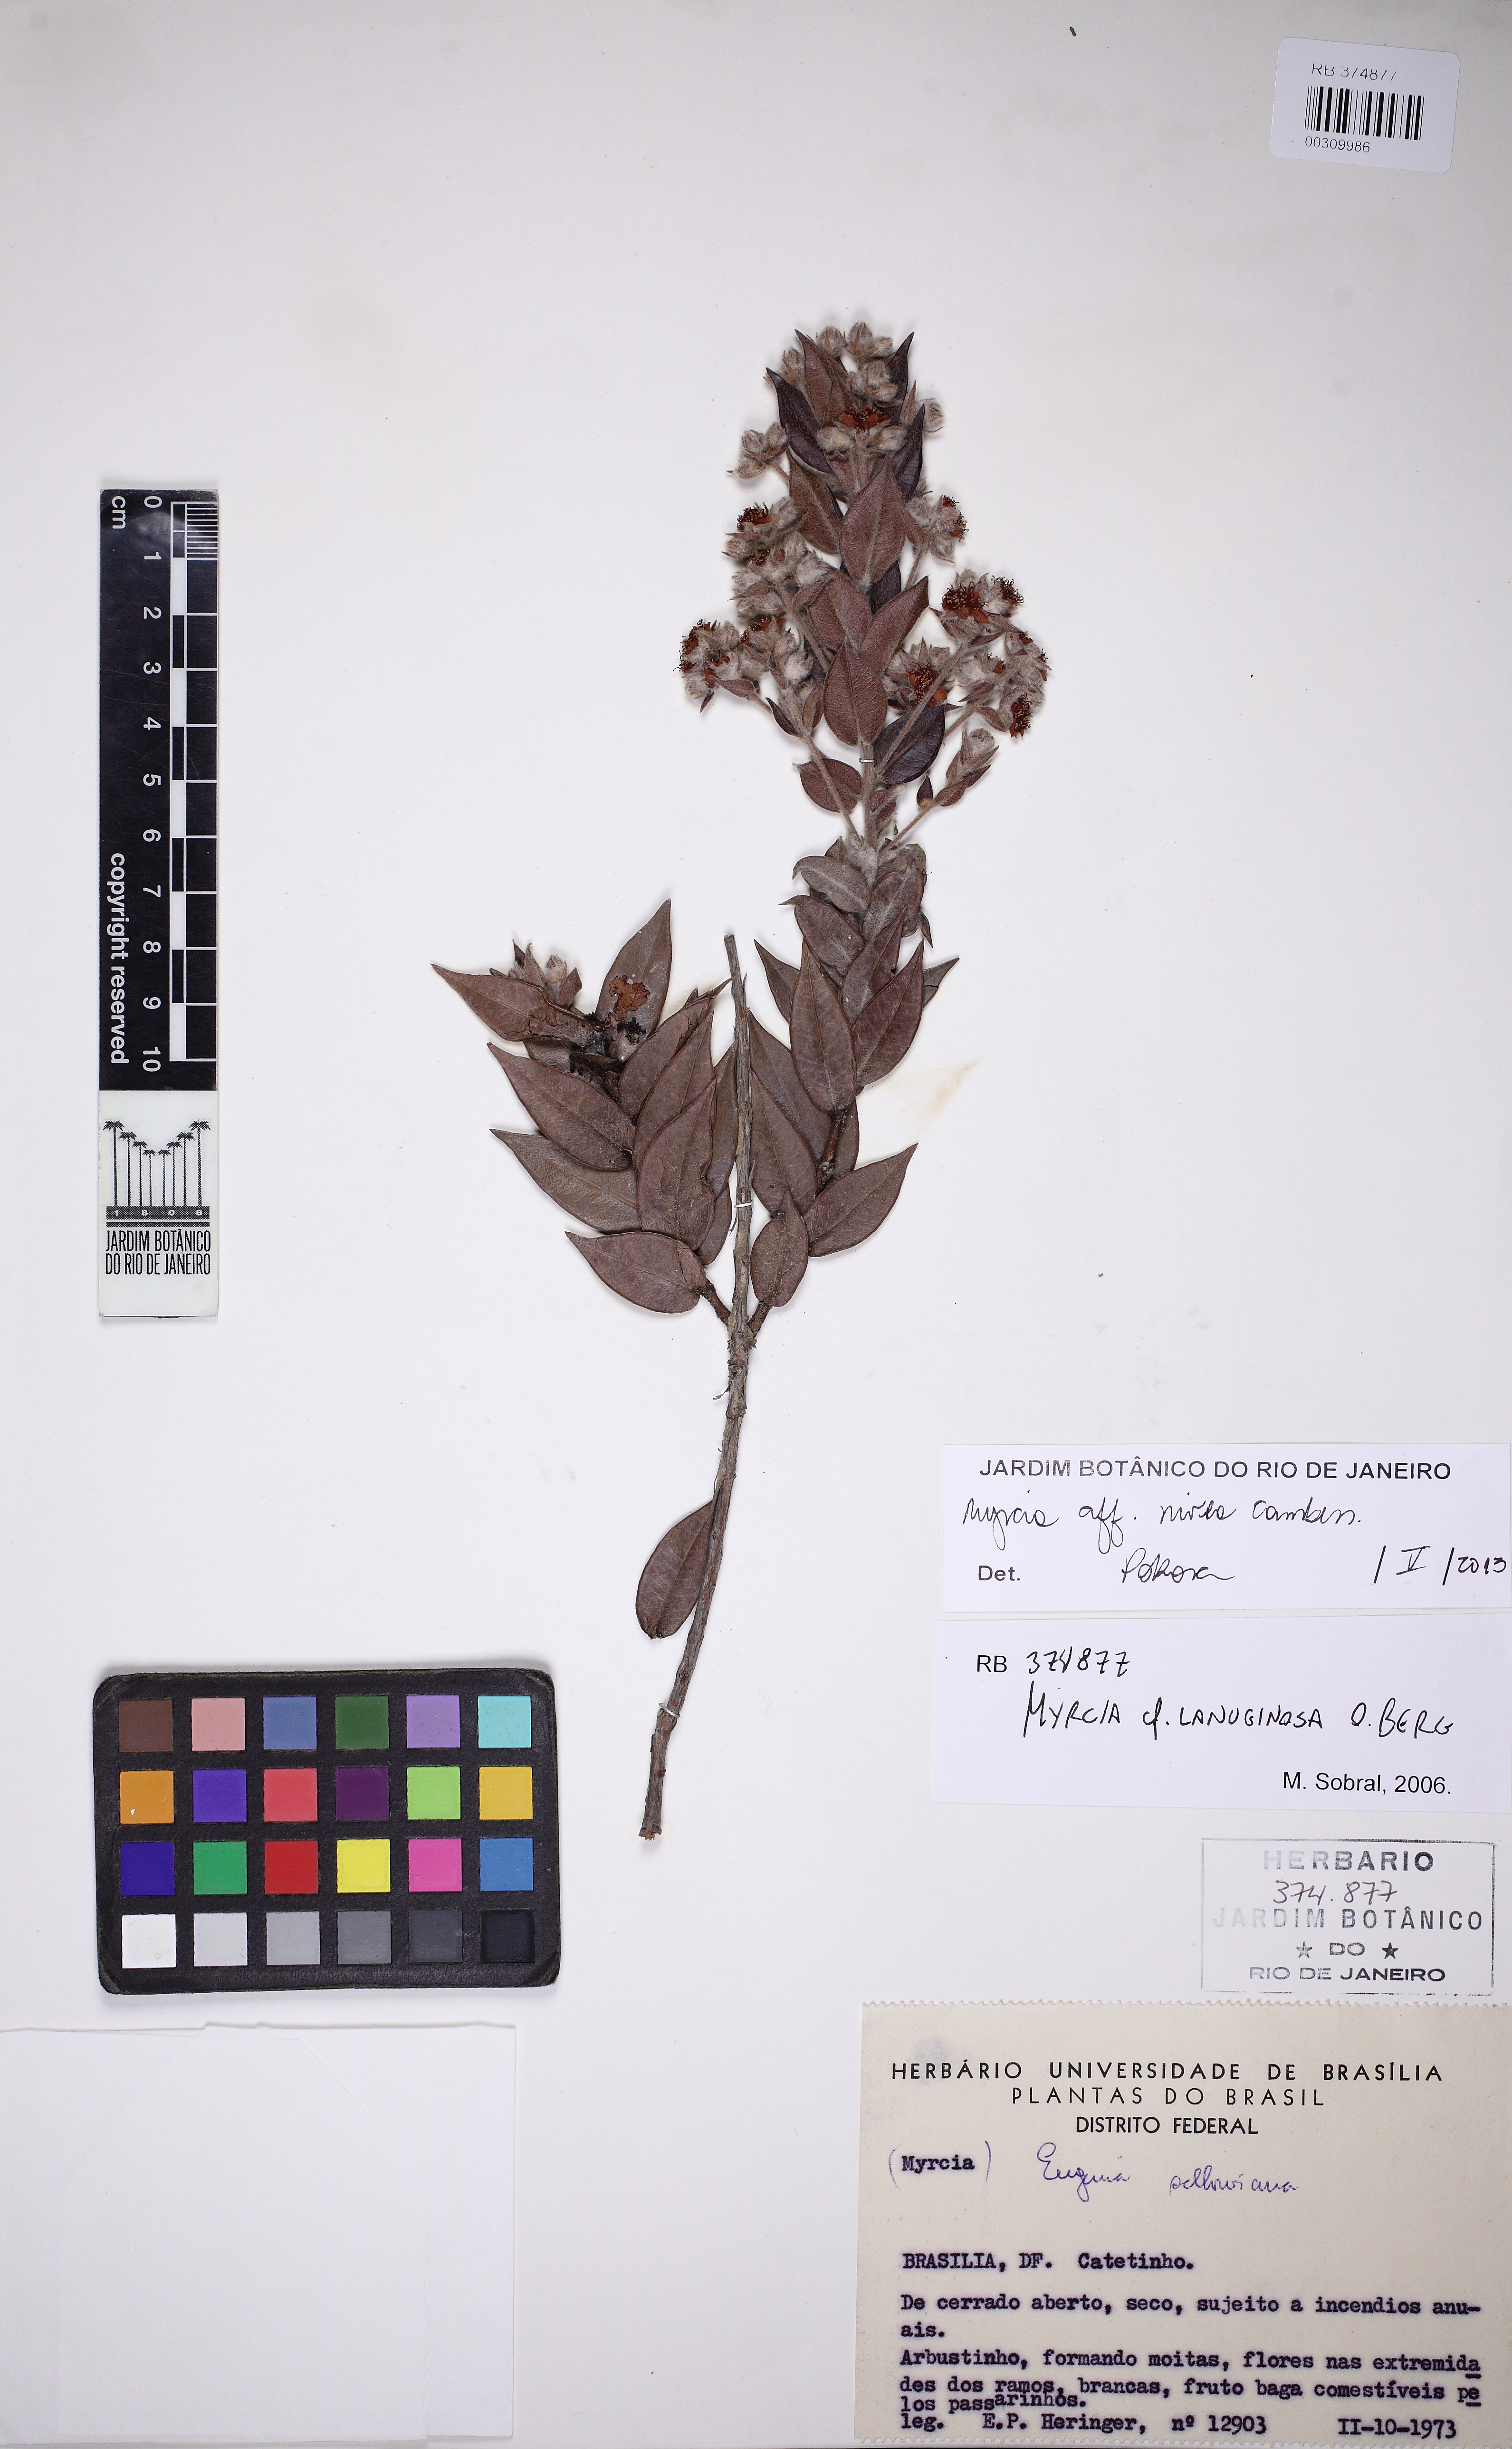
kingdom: Plantae
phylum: Tracheophyta
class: Magnoliopsida
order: Myrtales
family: Myrtaceae
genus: Myrcia
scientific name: Myrcia nivea
